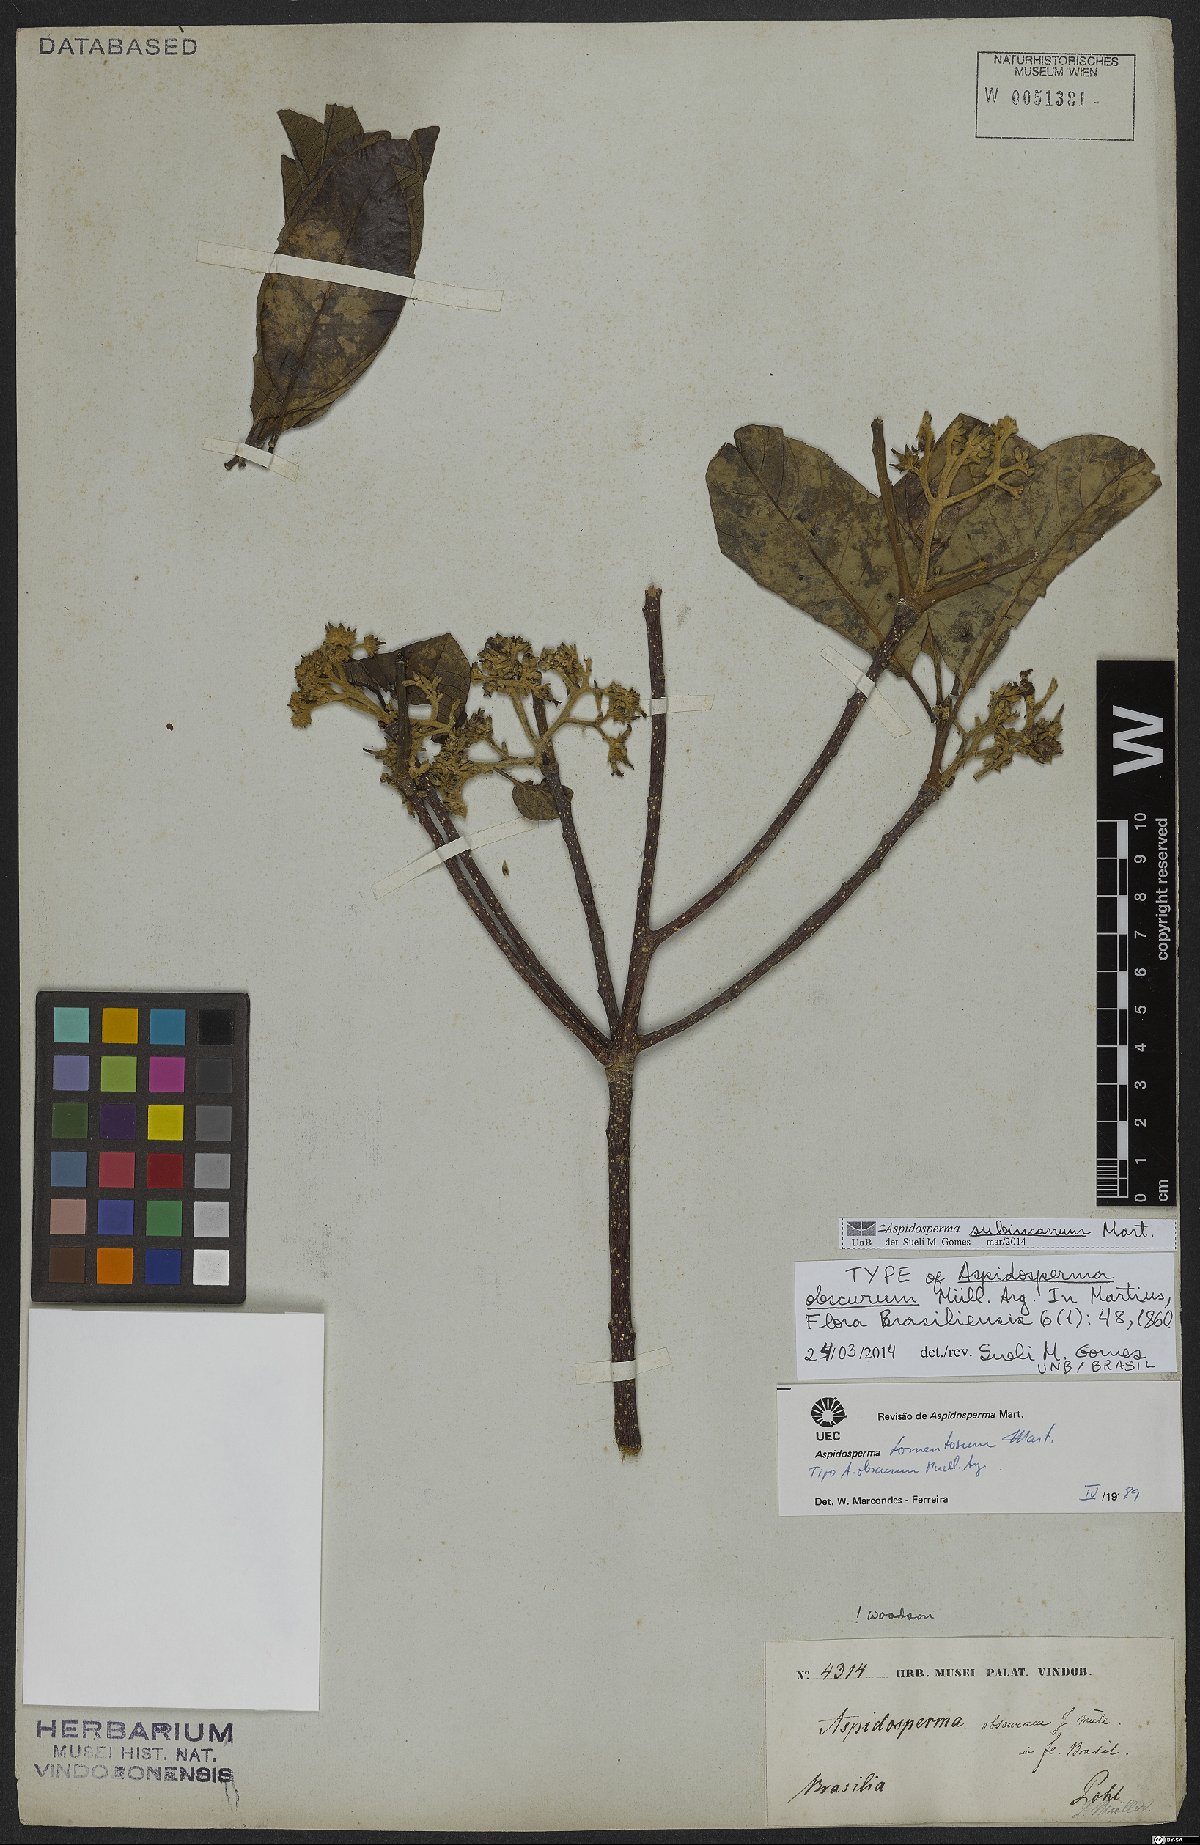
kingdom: Plantae
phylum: Tracheophyta
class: Magnoliopsida
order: Gentianales
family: Apocynaceae
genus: Aspidosperma
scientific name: Aspidosperma subincanum
